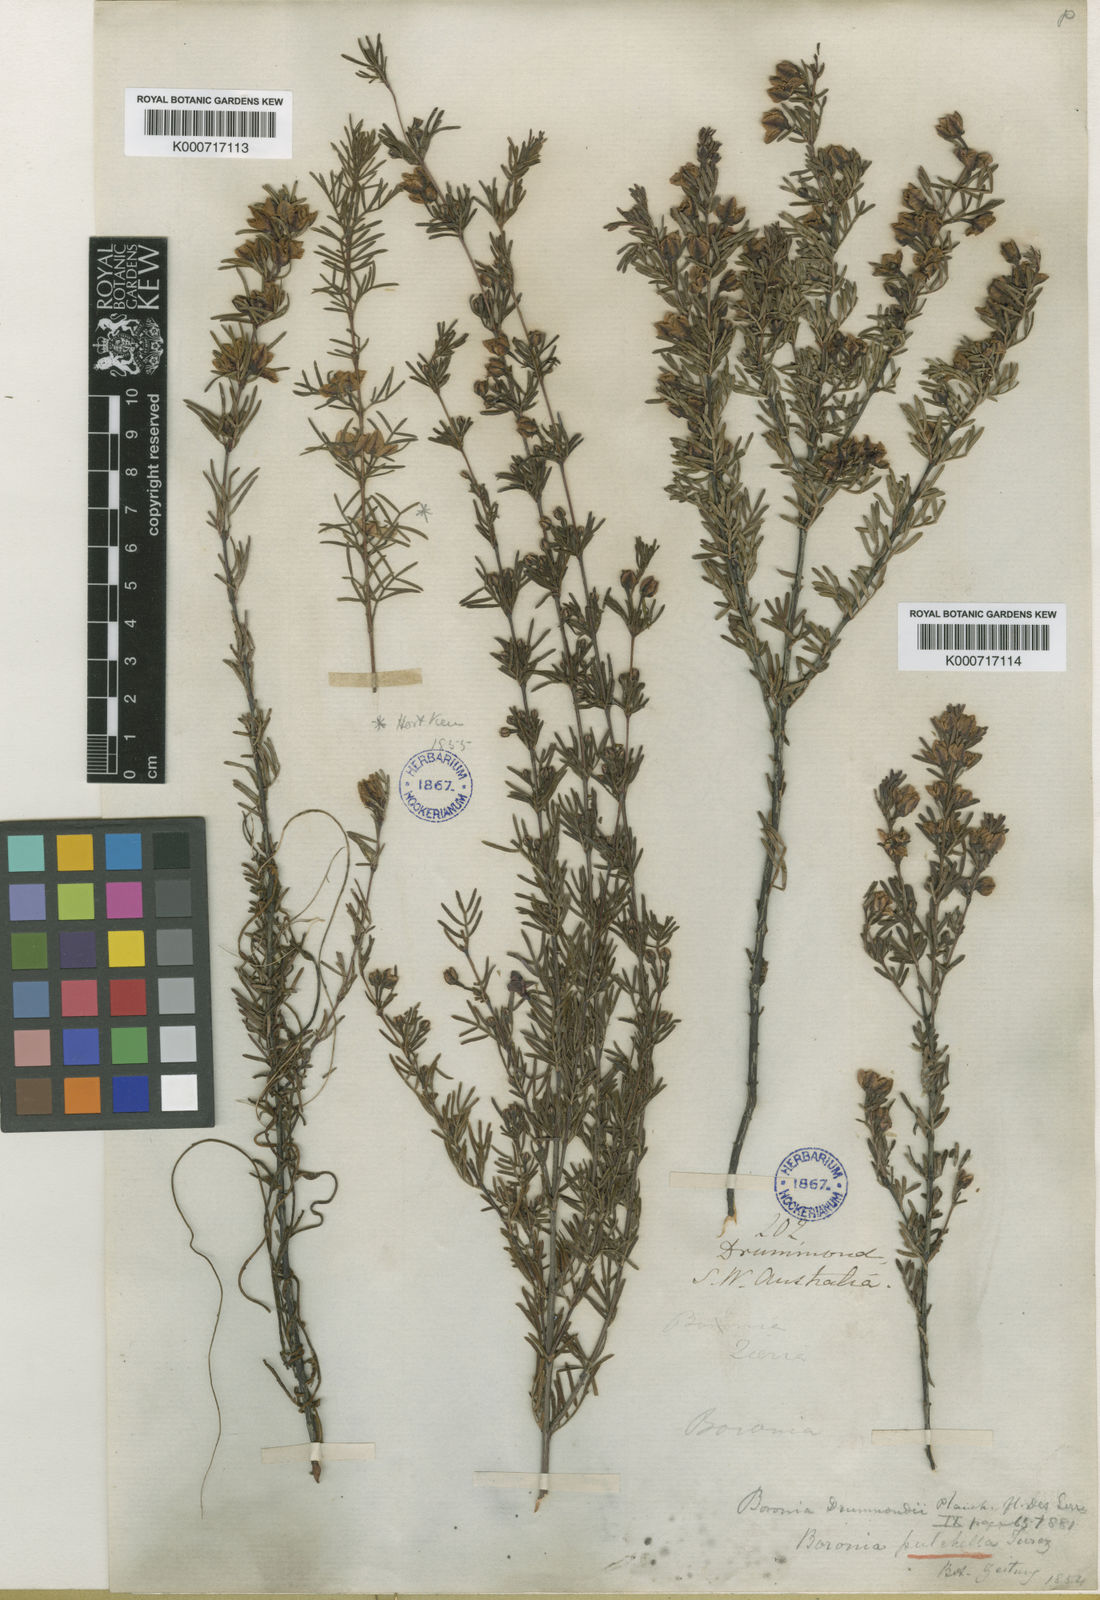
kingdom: Plantae
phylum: Tracheophyta
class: Magnoliopsida
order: Sapindales
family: Rutaceae
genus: Boronia
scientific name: Boronia pulchella
